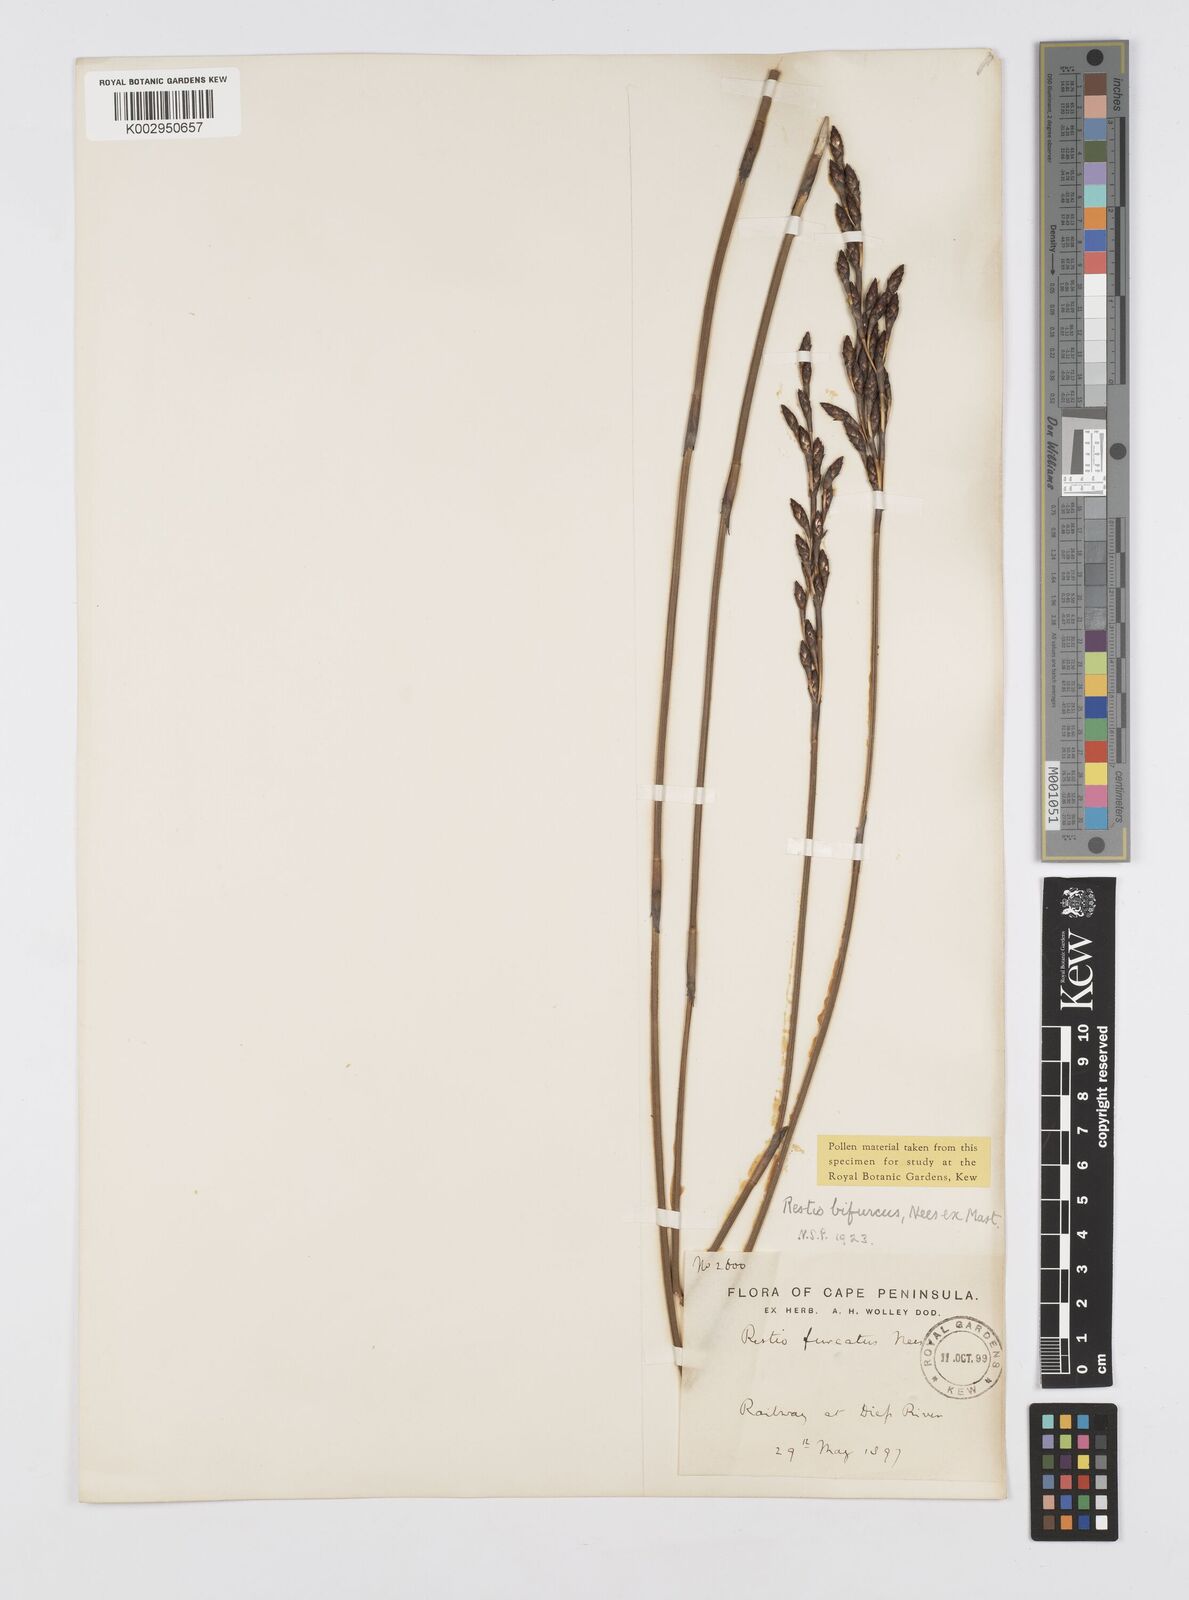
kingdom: Plantae
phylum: Tracheophyta
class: Liliopsida
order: Poales
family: Restionaceae
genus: Restio
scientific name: Restio bifurcus
